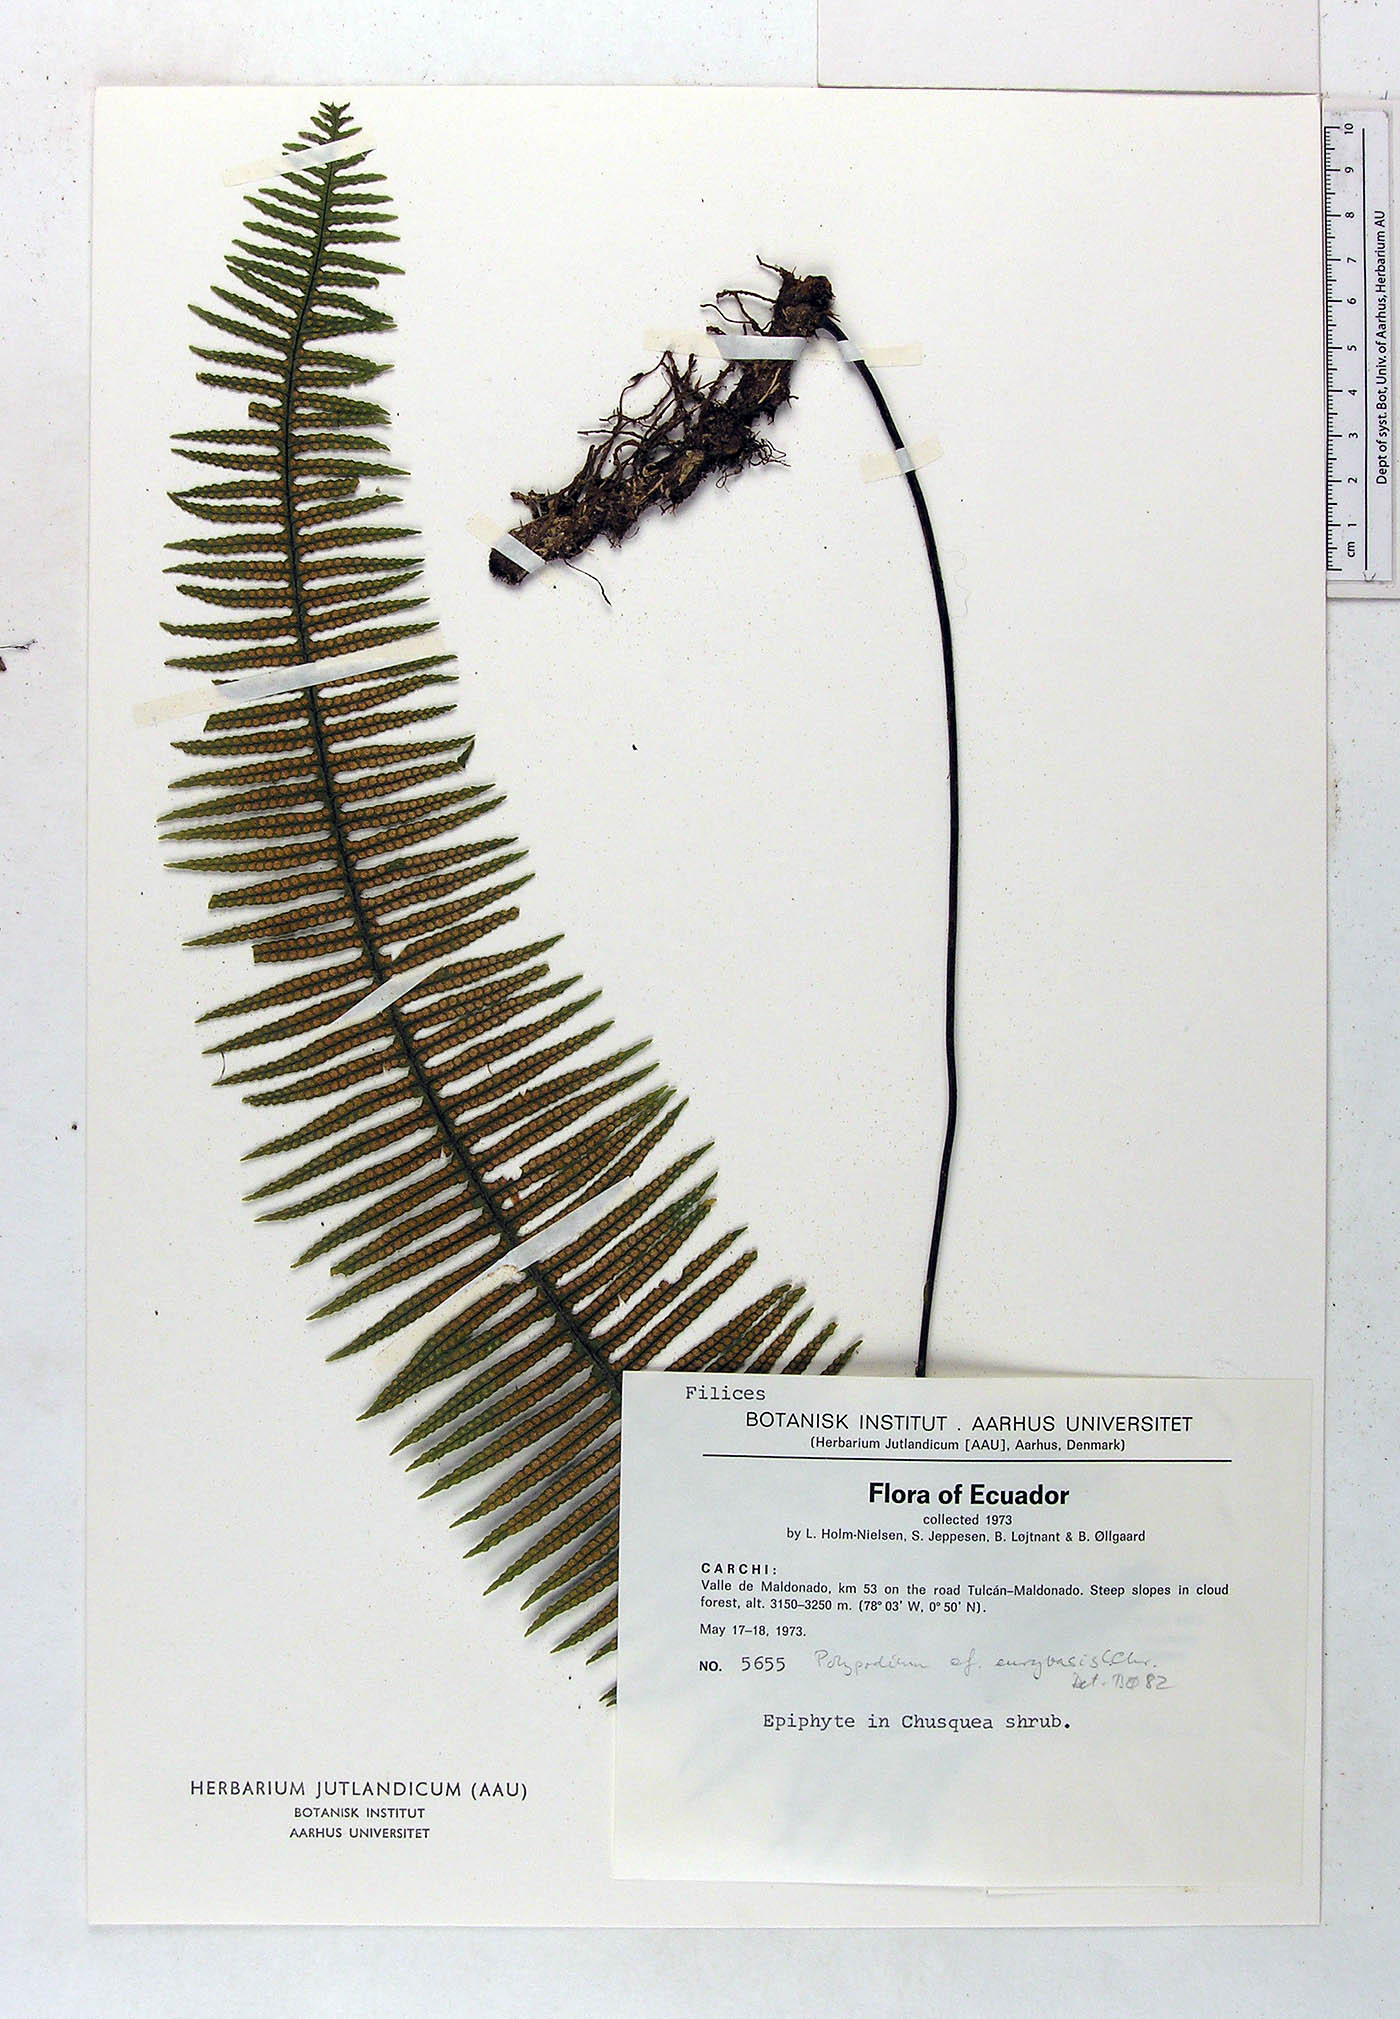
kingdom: Plantae
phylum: Tracheophyta
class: Polypodiopsida
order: Polypodiales
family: Polypodiaceae
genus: Pecluma
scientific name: Pecluma eurybasis
